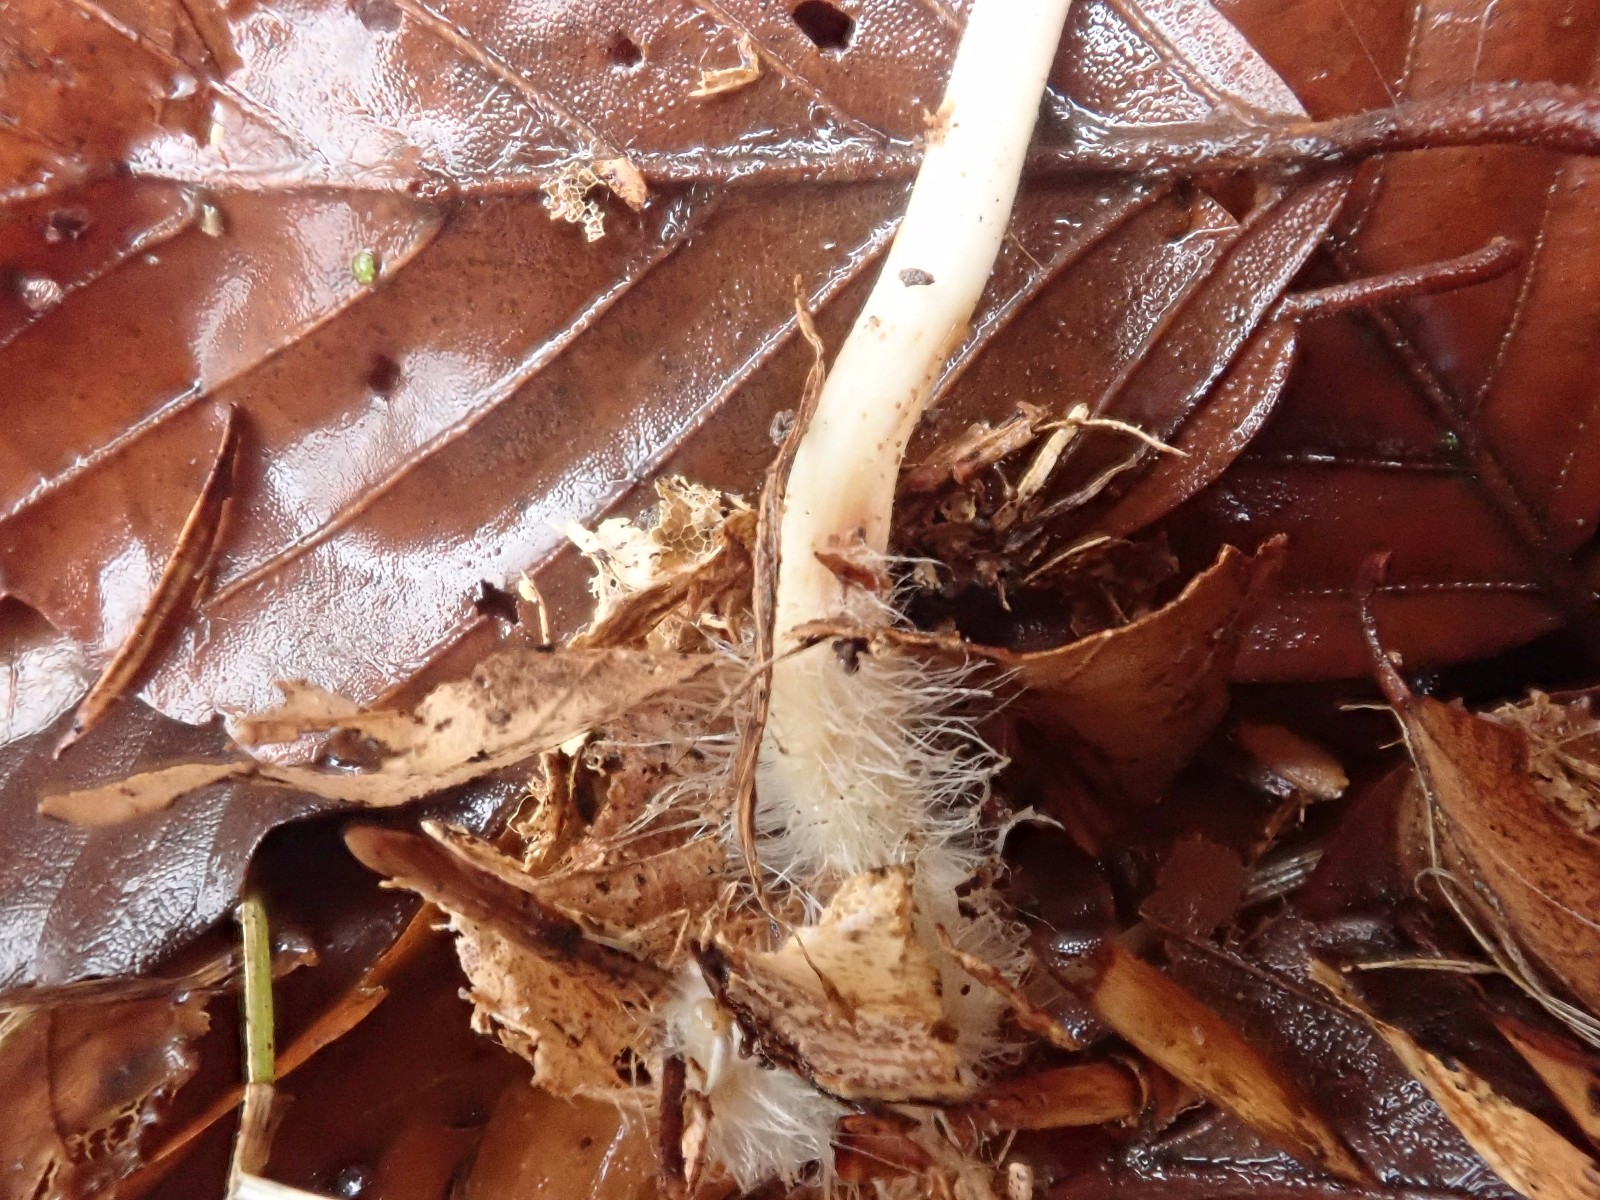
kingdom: Fungi
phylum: Basidiomycota
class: Agaricomycetes
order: Agaricales
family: Mycenaceae
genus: Mycena
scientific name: Mycena polygramma
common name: mangestribet huesvamp
